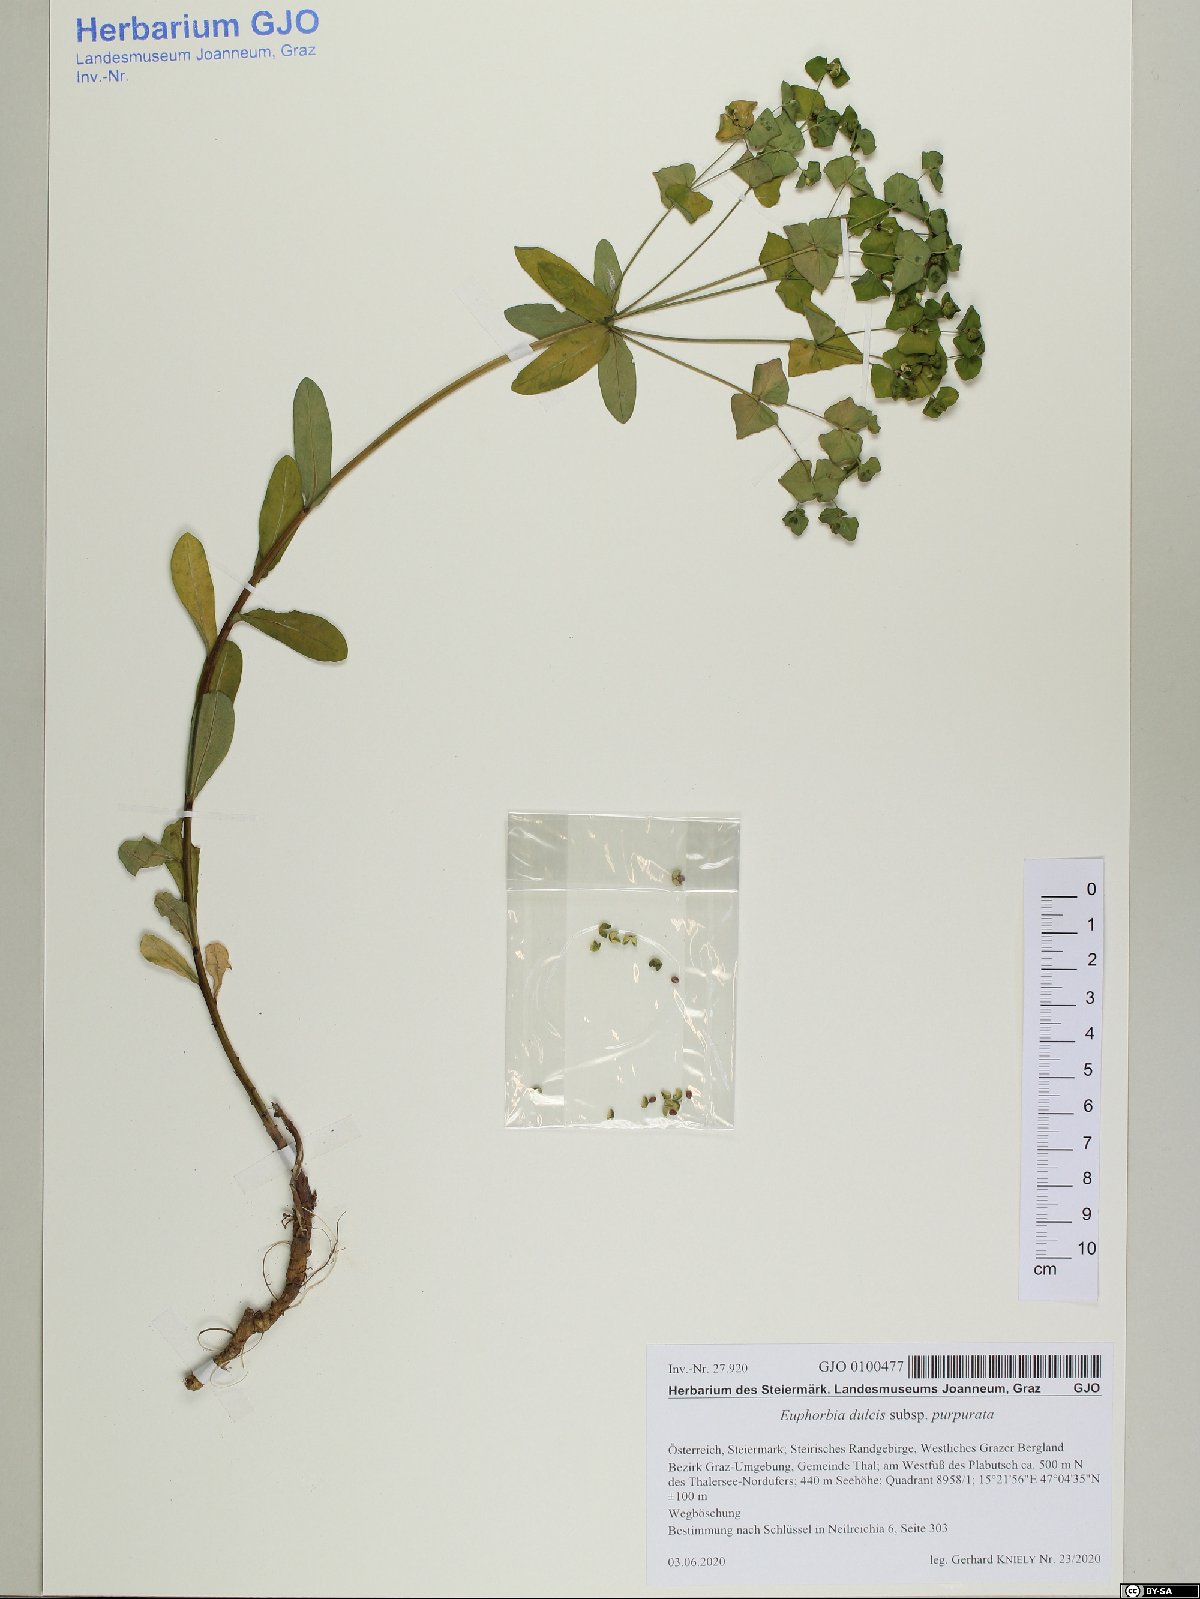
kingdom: Plantae
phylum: Tracheophyta
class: Magnoliopsida
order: Malpighiales
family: Euphorbiaceae
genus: Euphorbia
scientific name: Euphorbia dulcis
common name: Sweet spurge
